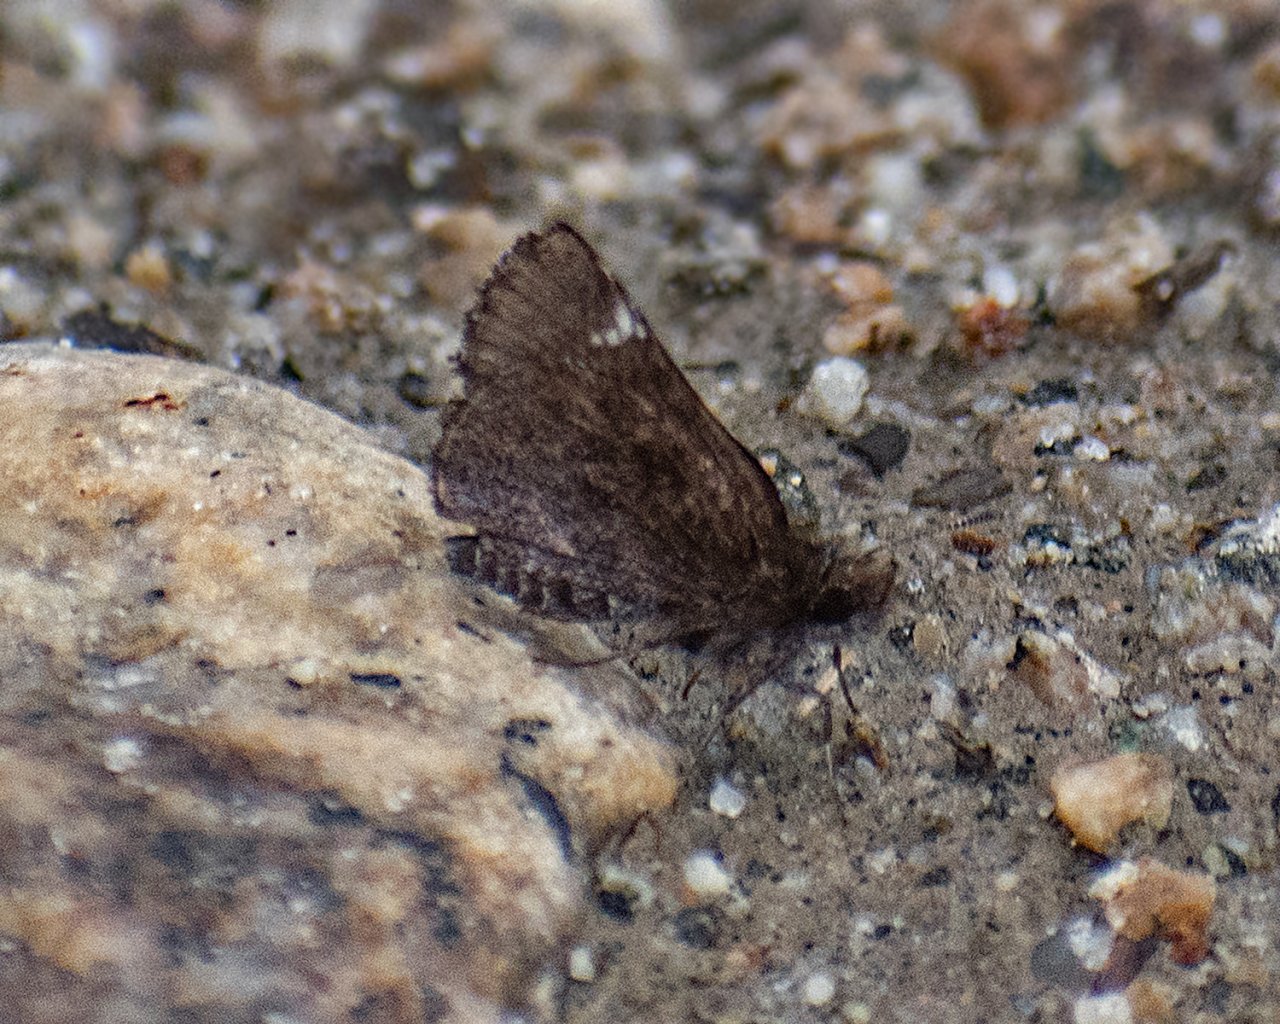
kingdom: Animalia
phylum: Arthropoda
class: Insecta
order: Lepidoptera
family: Hesperiidae
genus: Mastor
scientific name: Mastor vialis
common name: Common Roadside-Skipper
